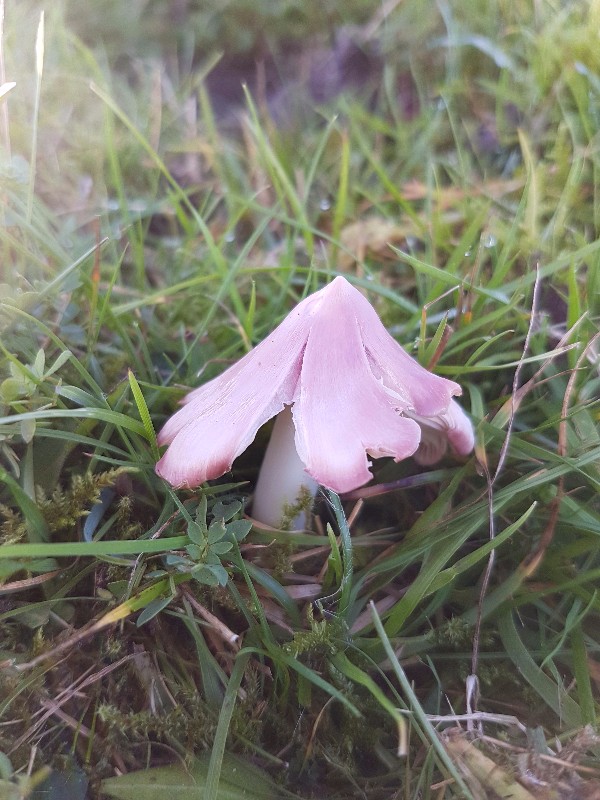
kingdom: Fungi
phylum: Basidiomycota
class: Agaricomycetes
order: Agaricales
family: Hygrophoraceae
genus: Porpolomopsis
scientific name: Porpolomopsis calyptriformis
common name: rosenrød vokshat
